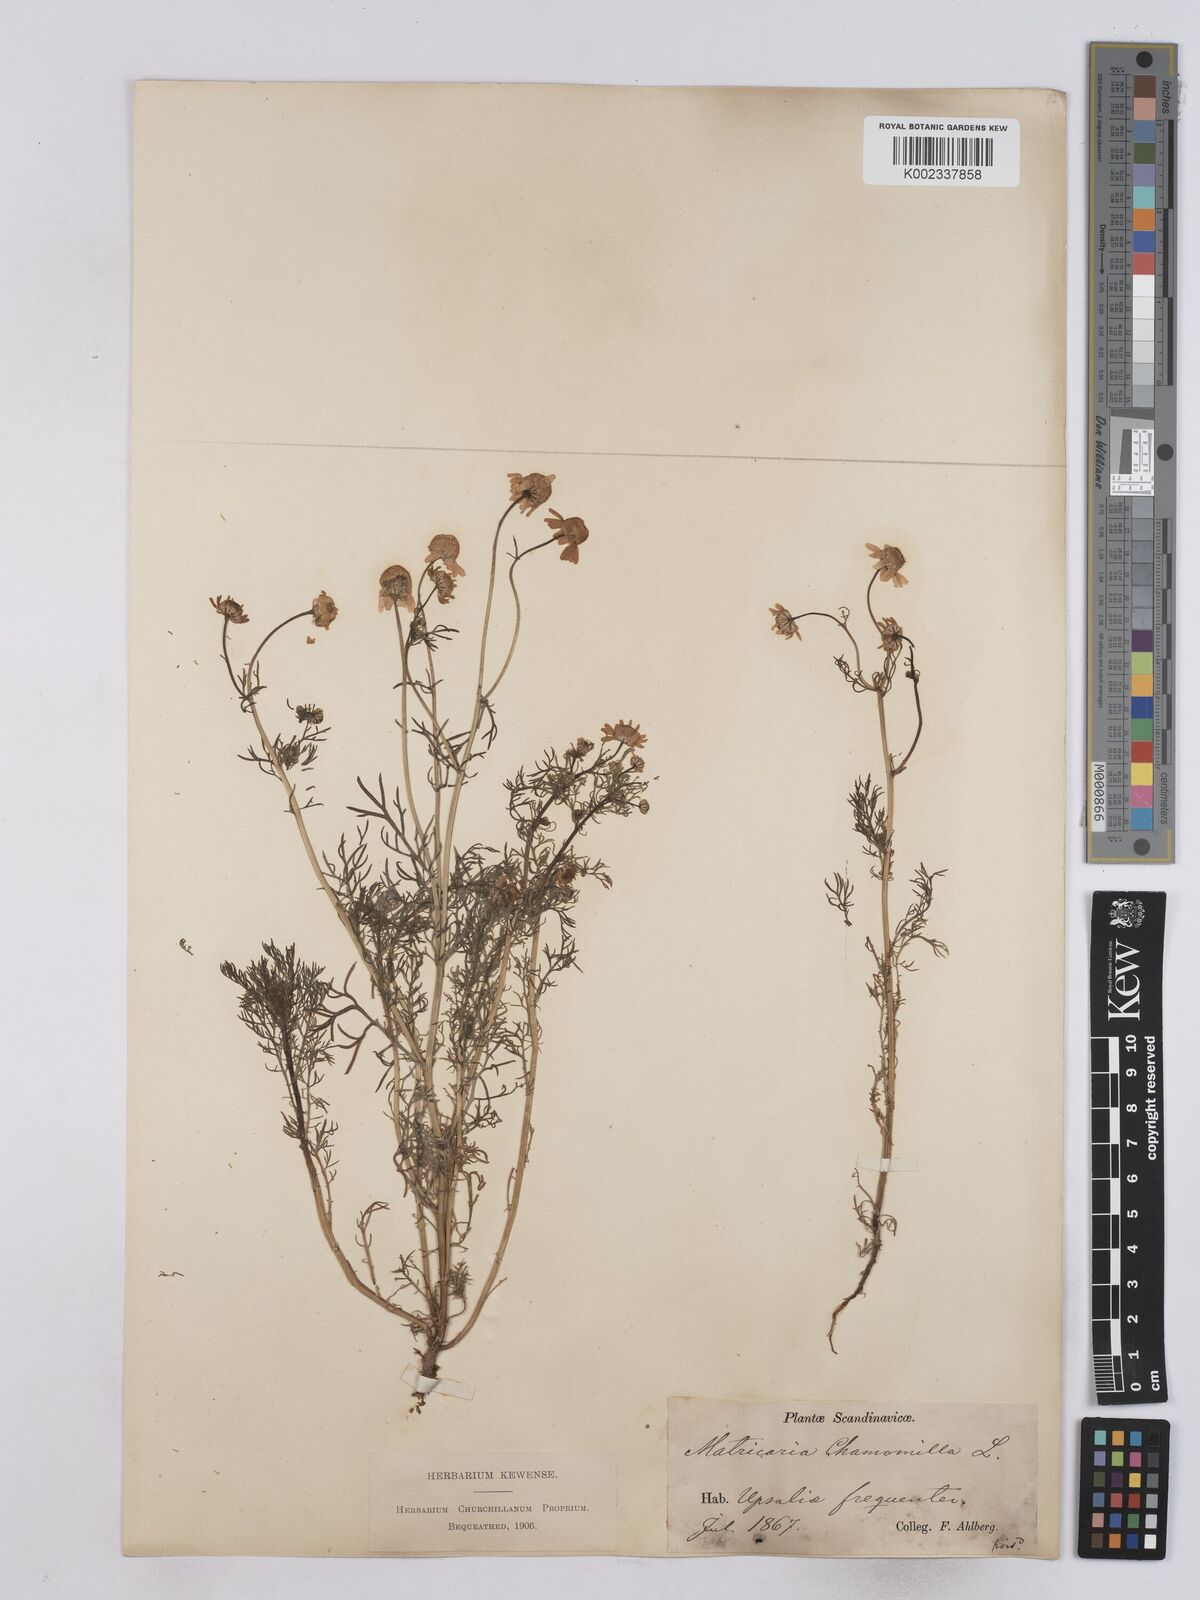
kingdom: Plantae
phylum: Tracheophyta
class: Magnoliopsida
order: Asterales
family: Asteraceae
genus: Matricaria
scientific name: Matricaria chamomilla
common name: Scented mayweed
